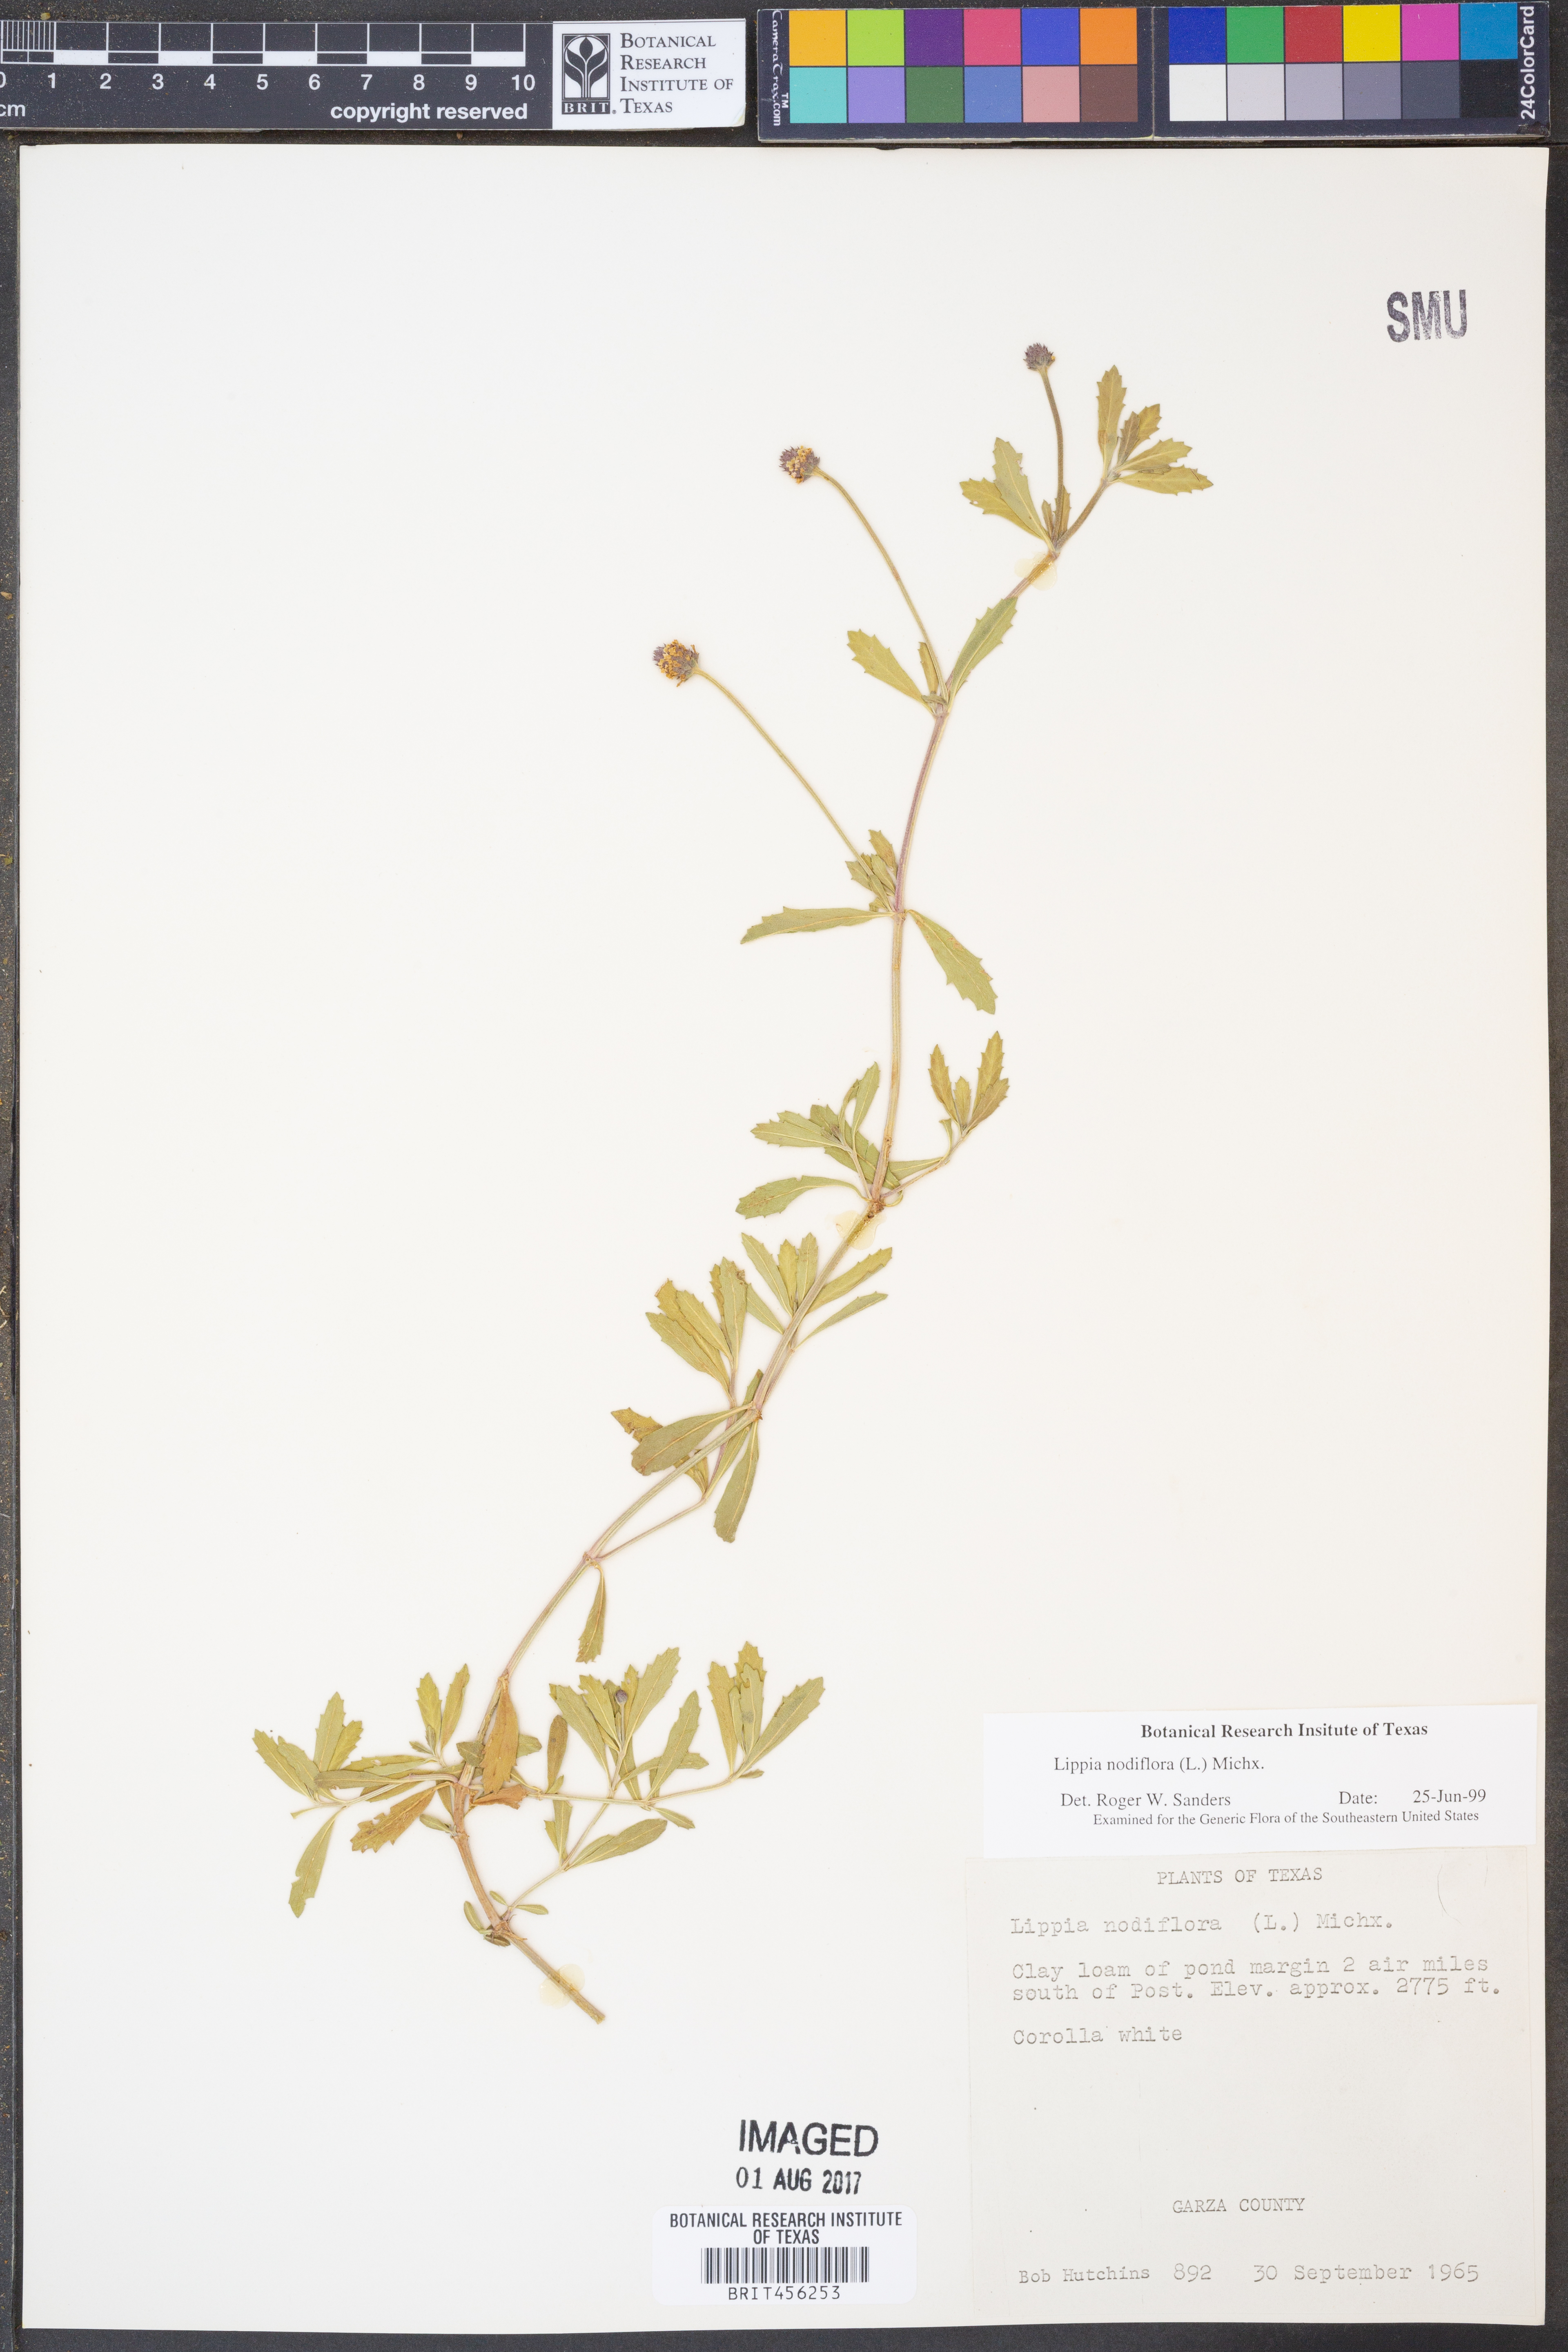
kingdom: Plantae
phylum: Tracheophyta
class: Magnoliopsida
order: Lamiales
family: Verbenaceae
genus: Phyla
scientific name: Phyla nodiflora
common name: Frogfruit
